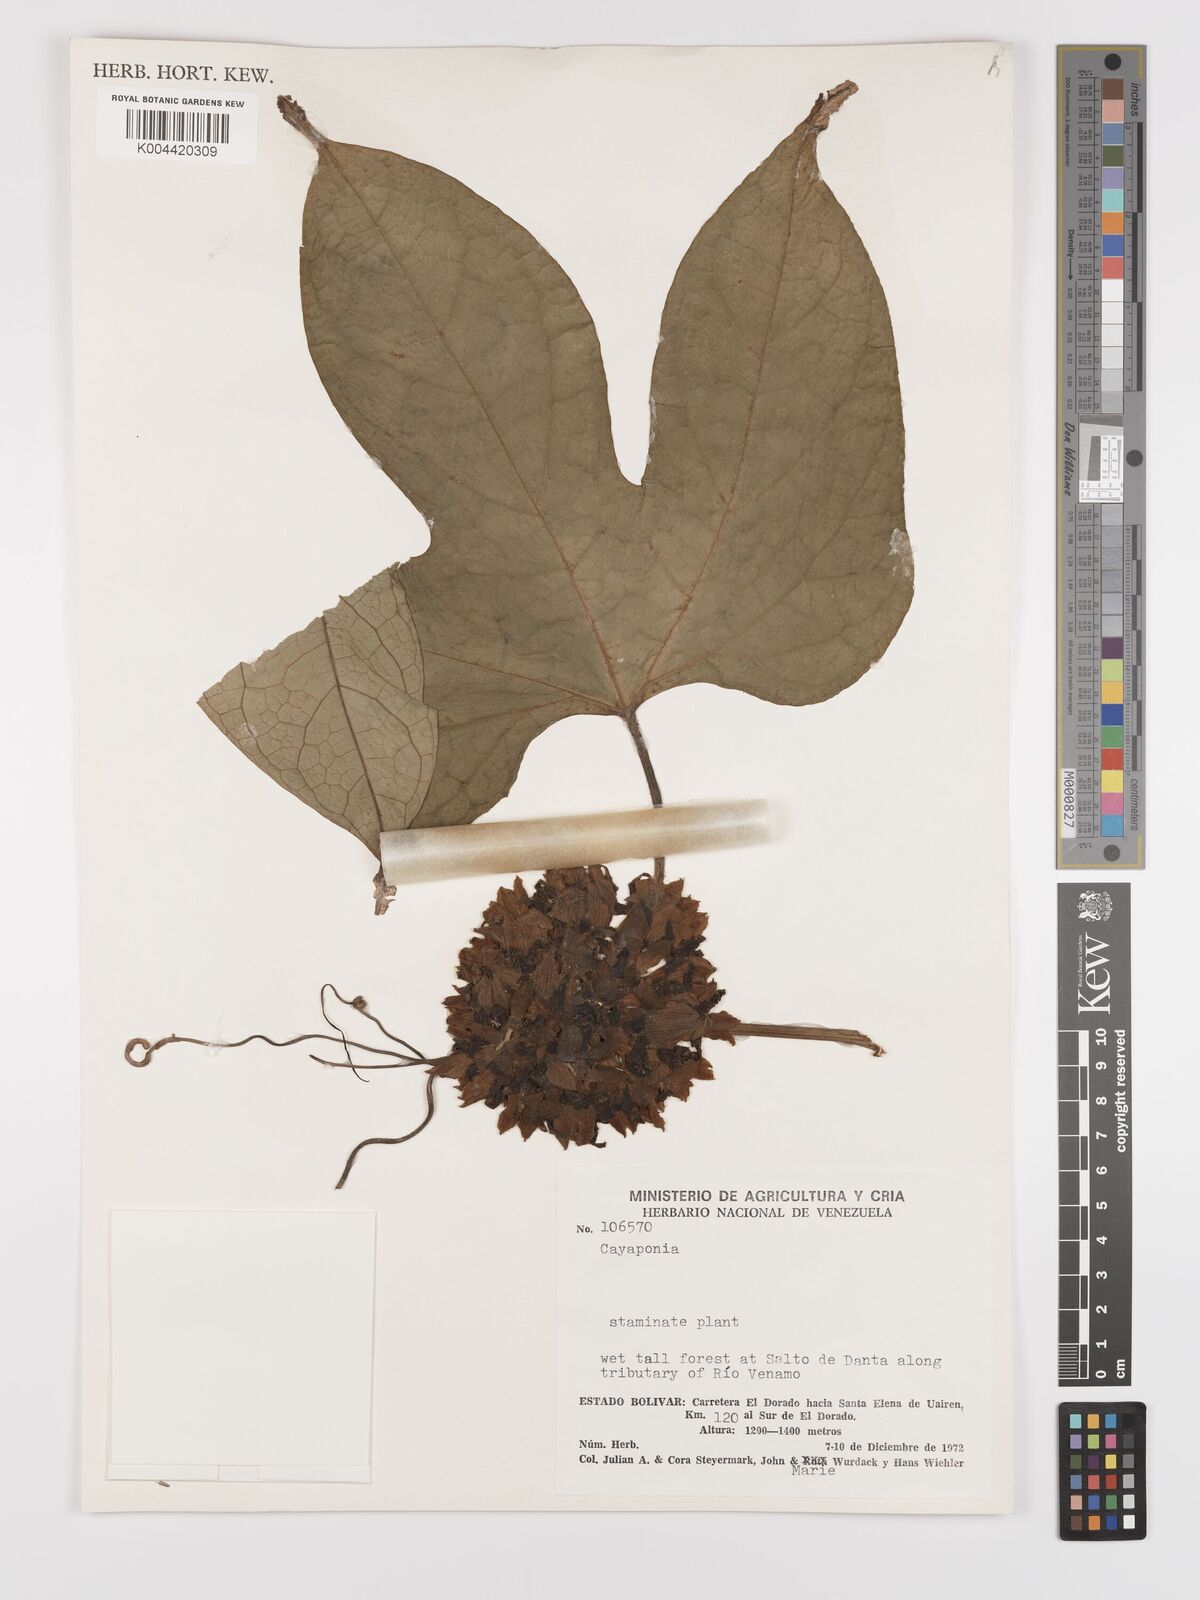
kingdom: Plantae
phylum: Tracheophyta
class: Magnoliopsida
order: Cucurbitales
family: Cucurbitaceae
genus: Cayaponia
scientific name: Cayaponia botryocarpa
